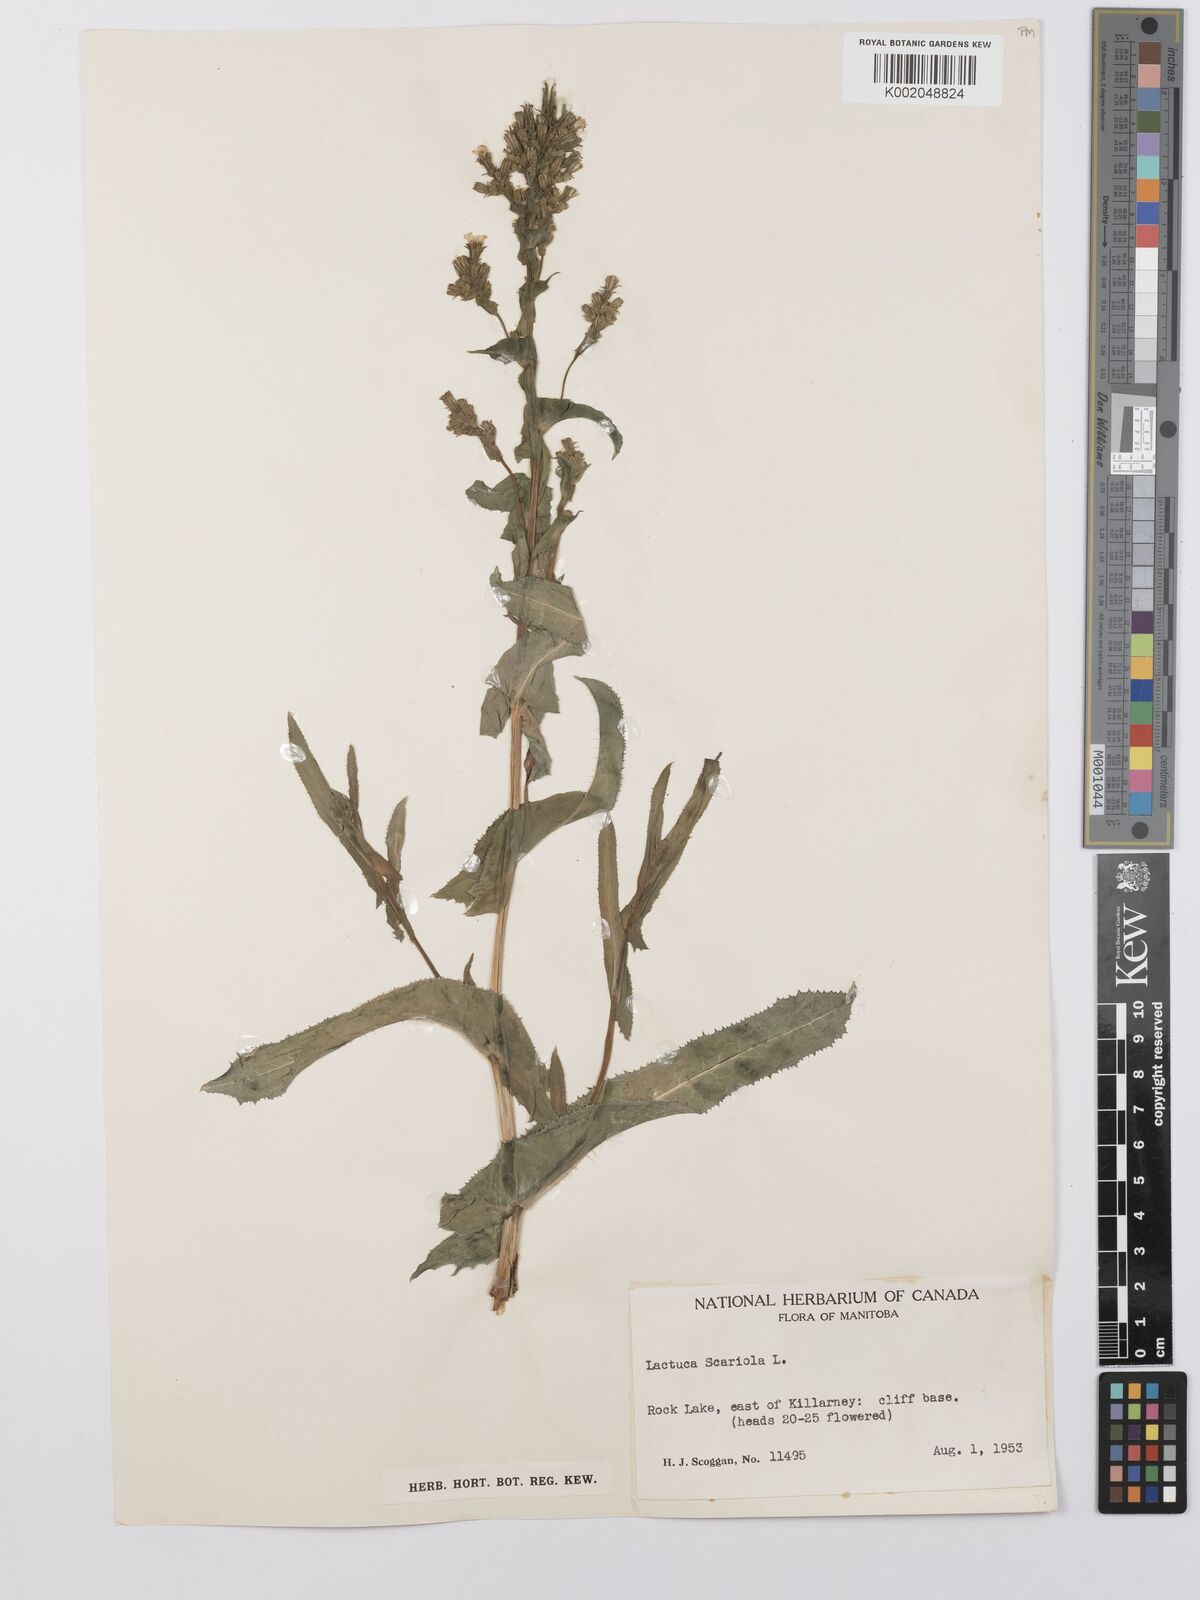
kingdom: Plantae
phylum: Tracheophyta
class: Magnoliopsida
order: Asterales
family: Asteraceae
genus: Lactuca
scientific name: Lactuca serriola
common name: Prickly lettuce
